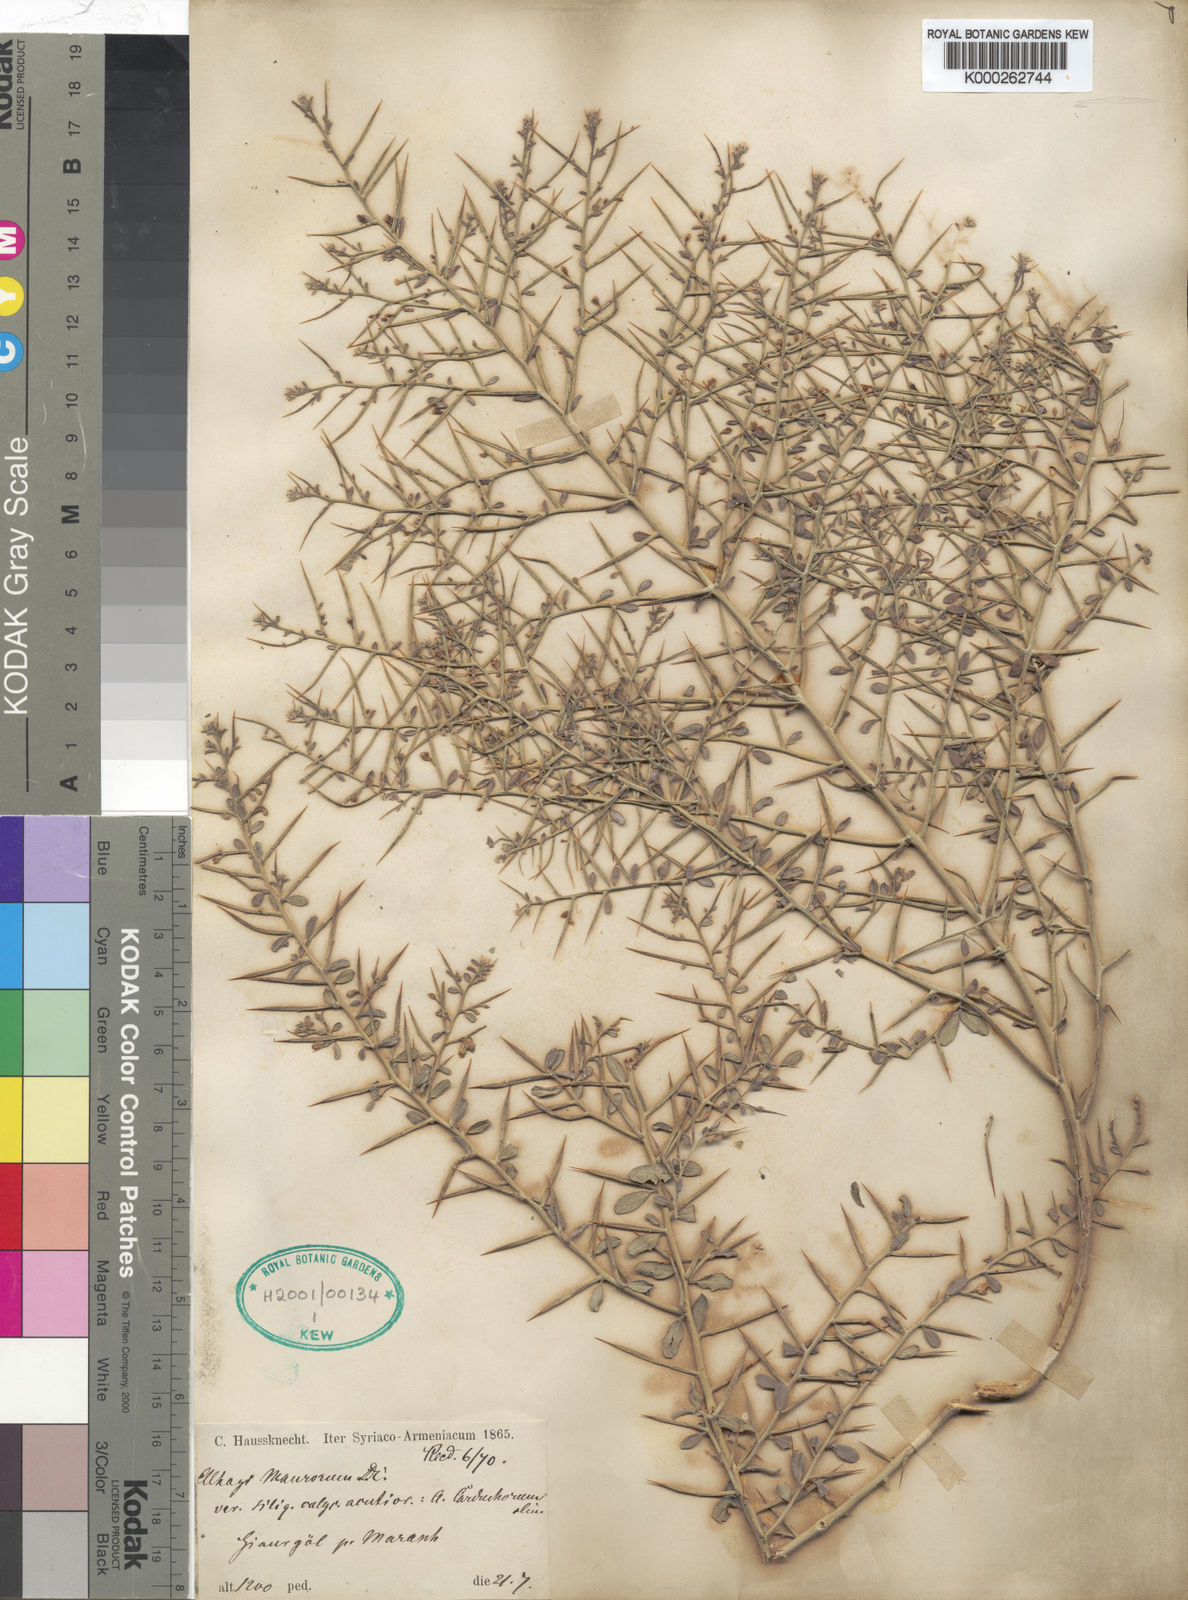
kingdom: Plantae
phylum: Tracheophyta
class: Magnoliopsida
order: Fabales
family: Fabaceae
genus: Alhagi
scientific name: Alhagi
